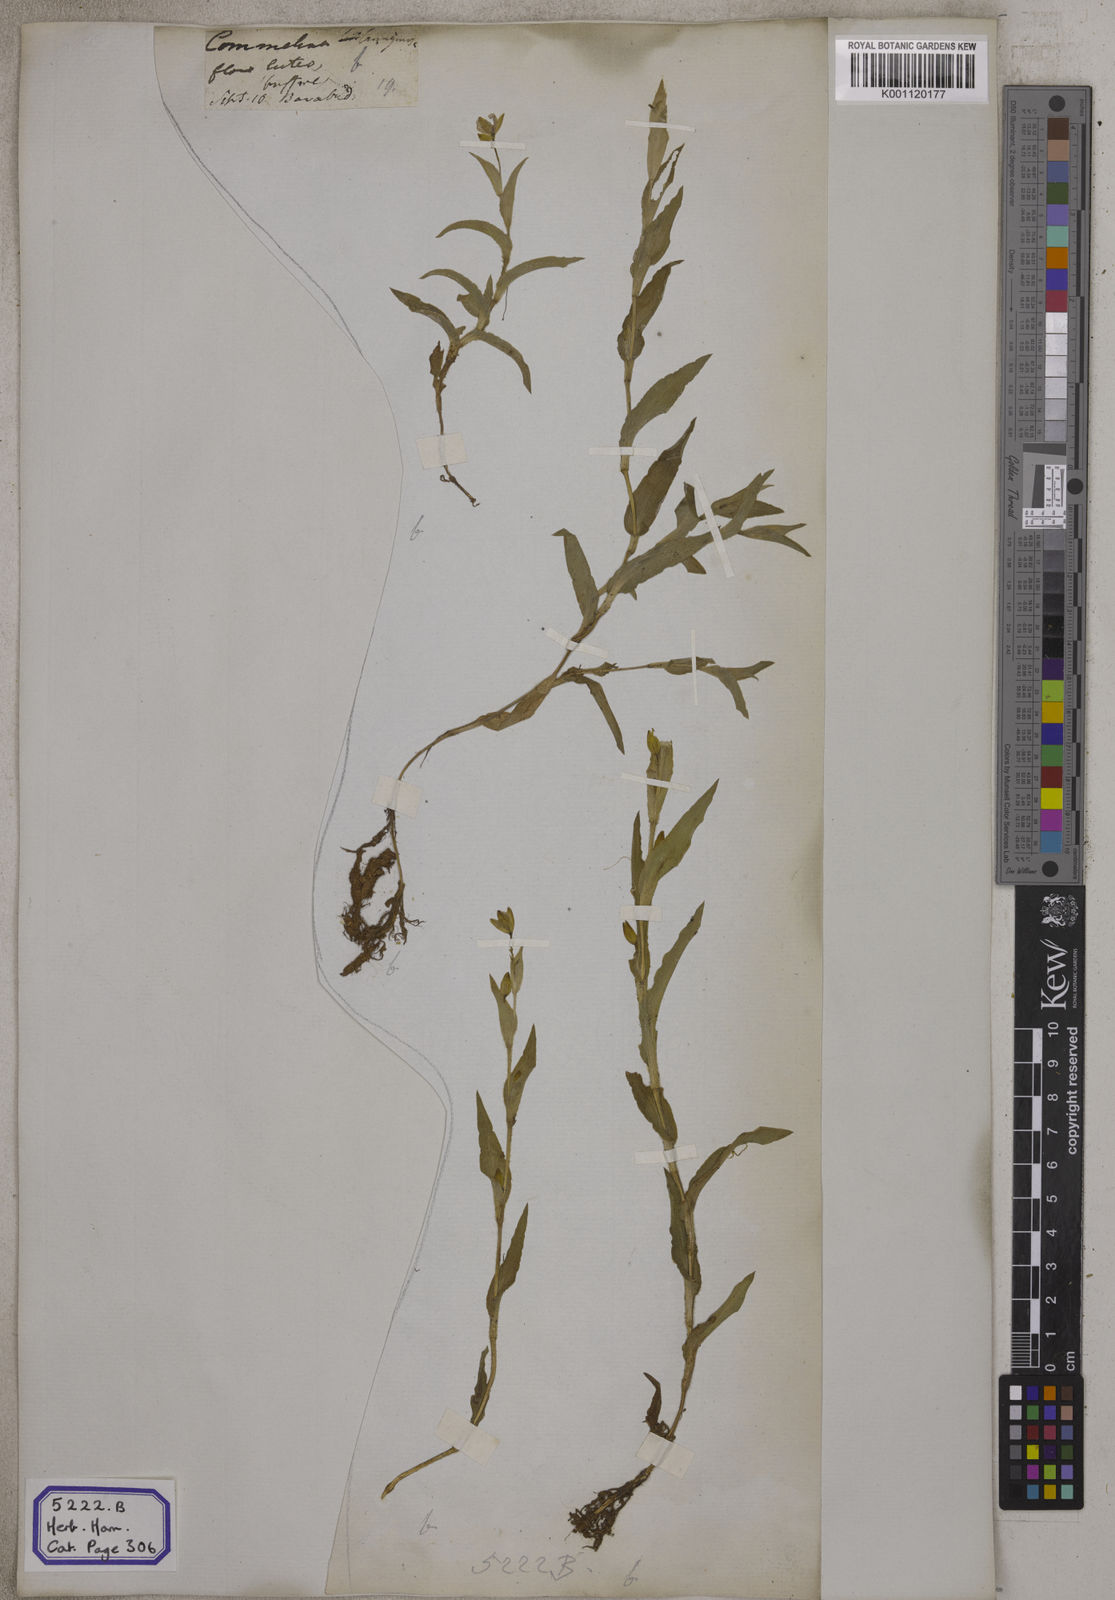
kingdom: Plantae
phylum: Tracheophyta
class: Liliopsida
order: Commelinales
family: Commelinaceae
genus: Aneilema
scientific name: Aneilema
